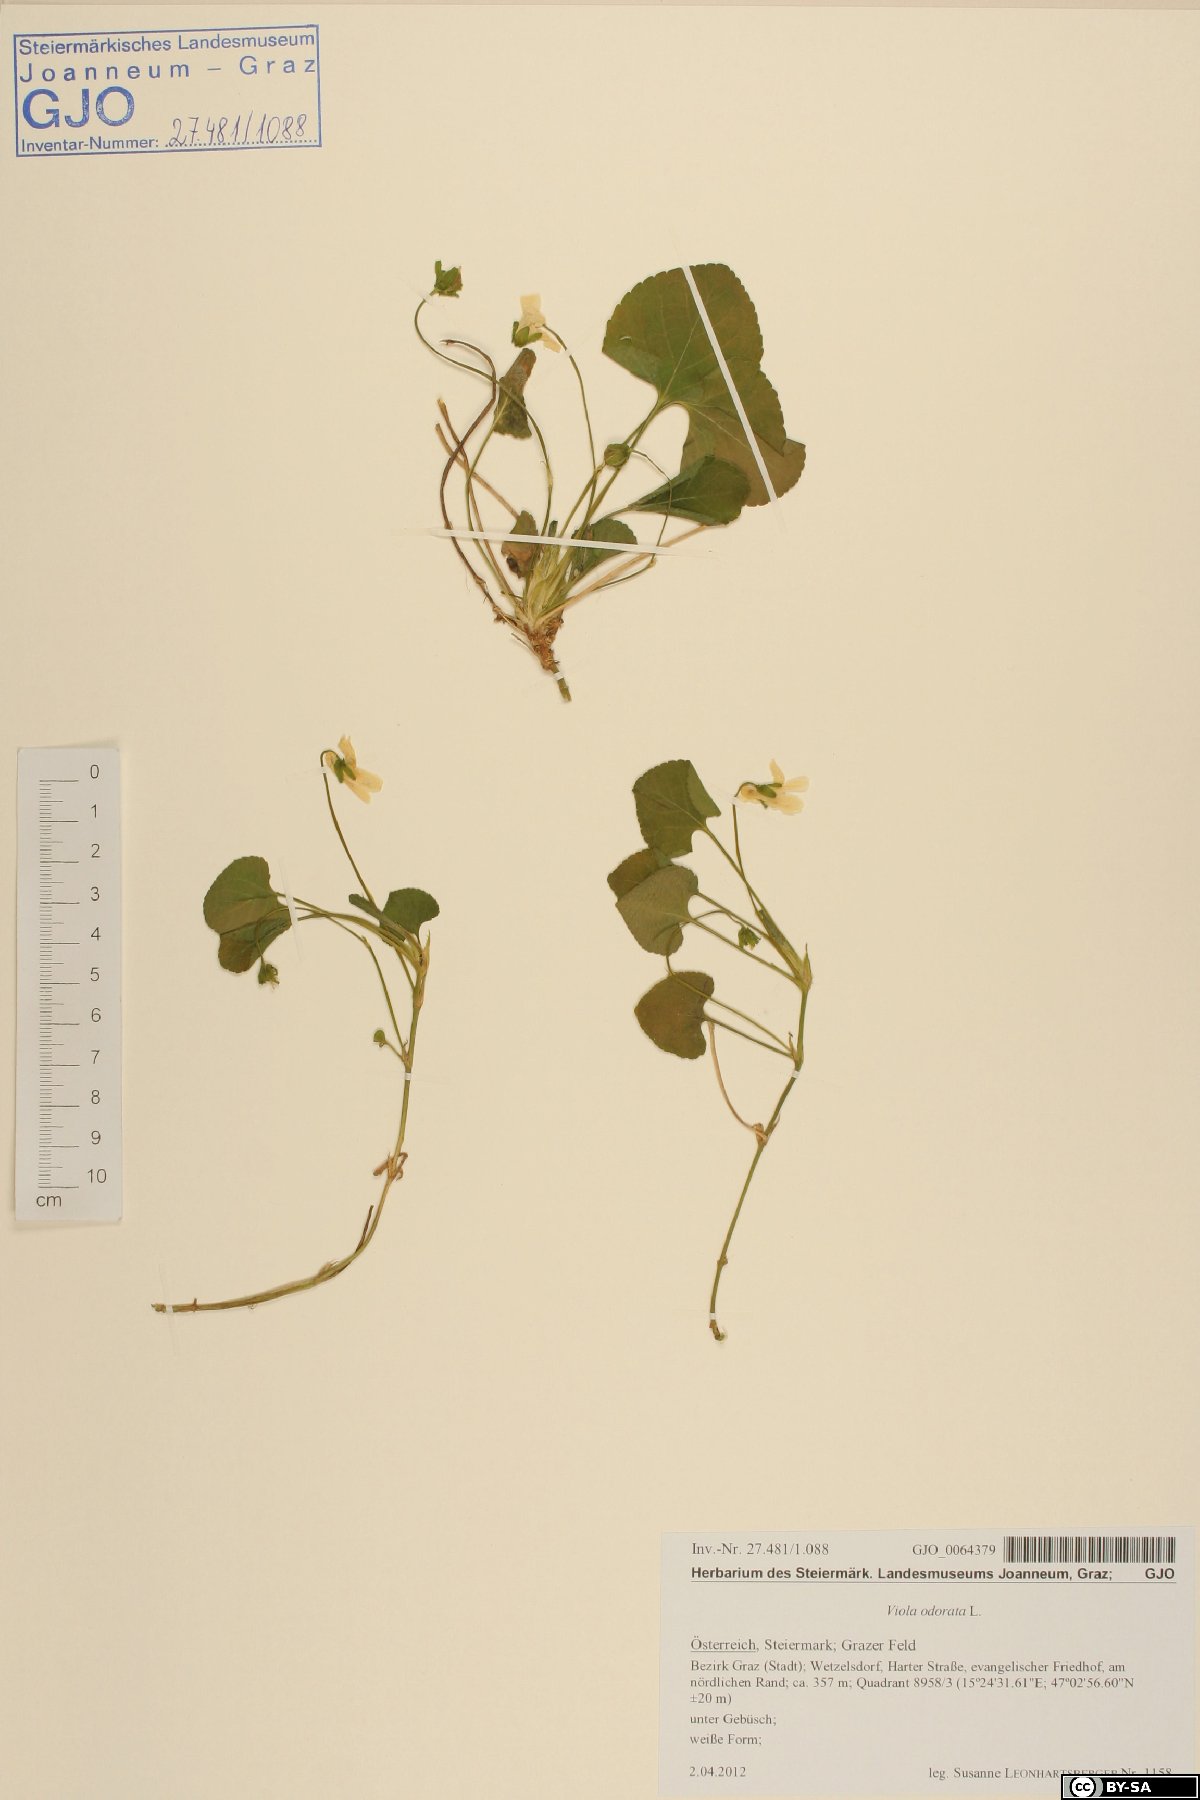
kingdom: Plantae
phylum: Tracheophyta
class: Magnoliopsida
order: Malpighiales
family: Violaceae
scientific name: Violaceae
